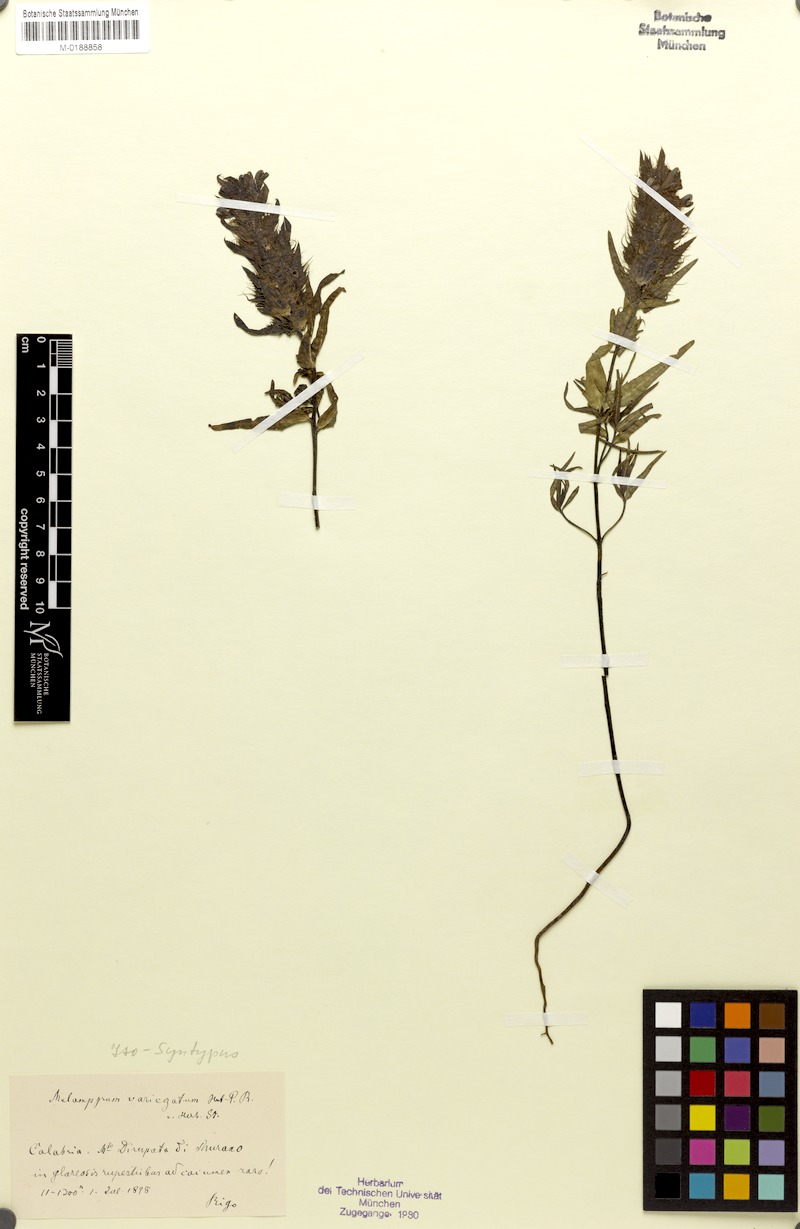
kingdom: Plantae
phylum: Tracheophyta
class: Magnoliopsida
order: Lamiales
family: Orobanchaceae
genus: Melampyrum
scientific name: Melampyrum variegatum
